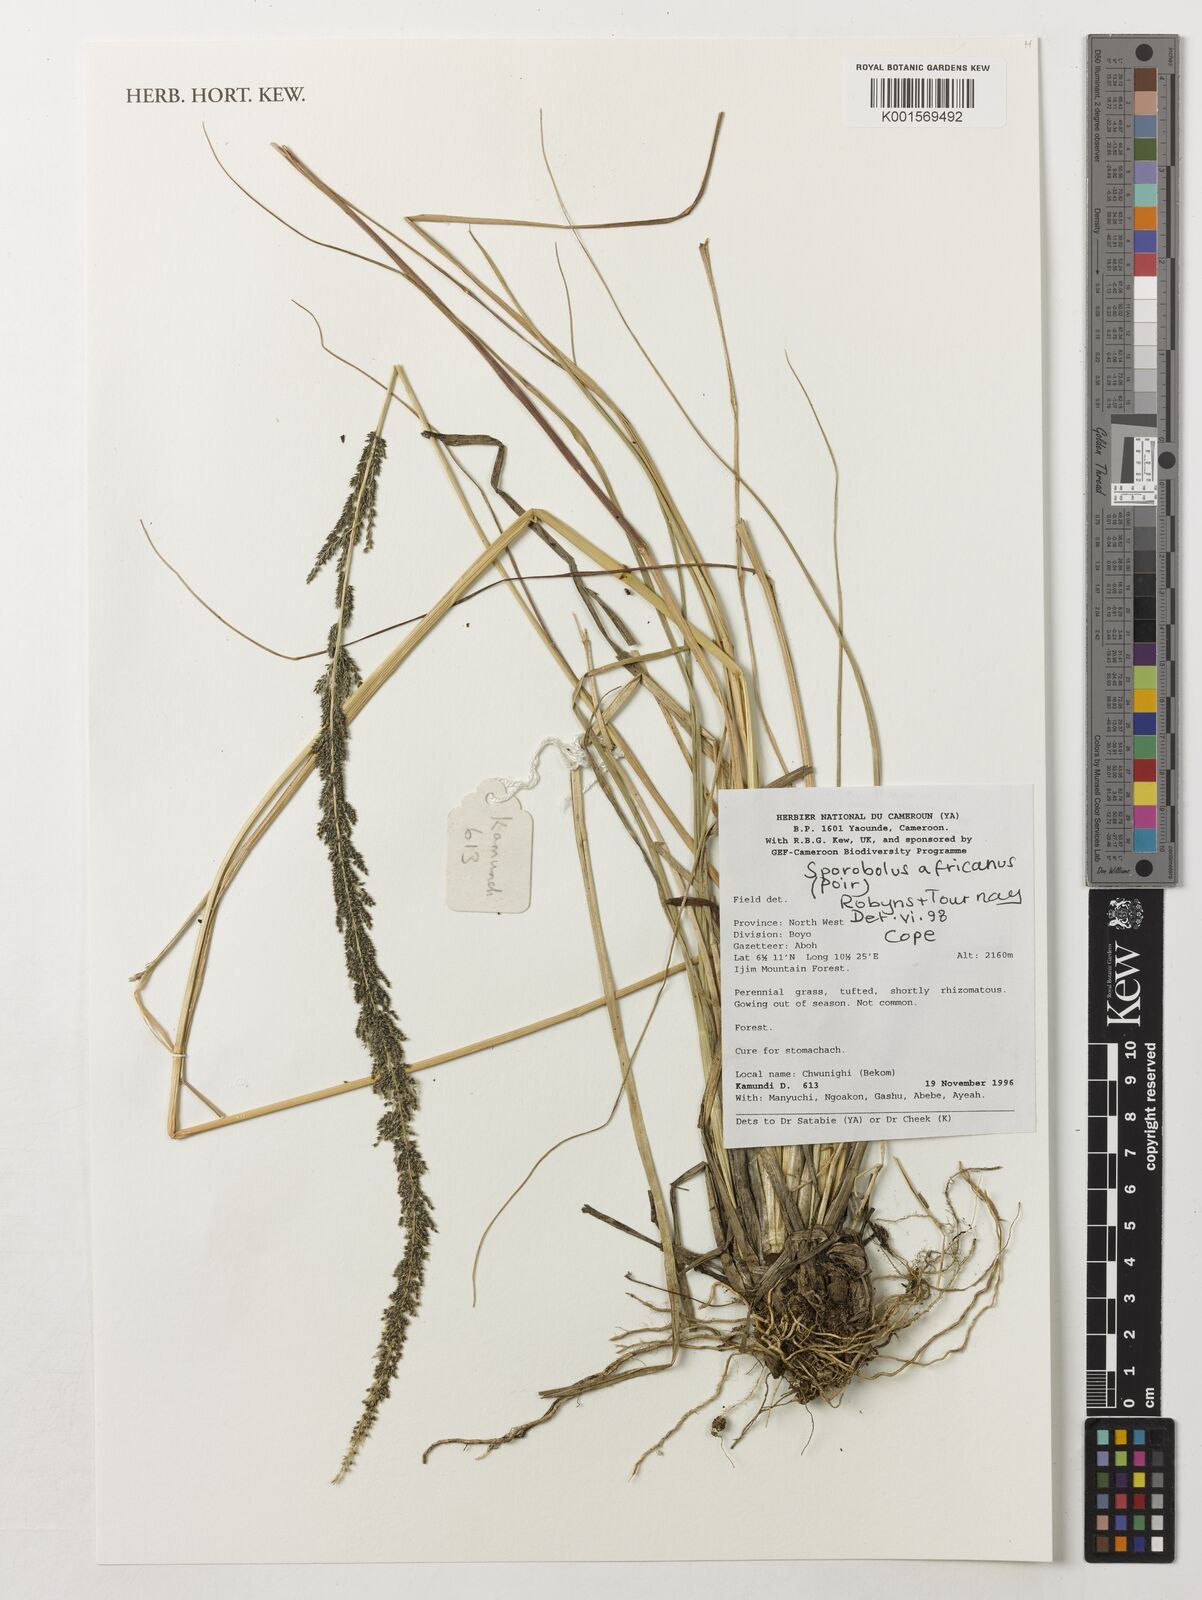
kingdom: Plantae
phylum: Tracheophyta
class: Liliopsida
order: Poales
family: Poaceae
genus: Sporobolus
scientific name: Sporobolus africanus
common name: African dropseed
